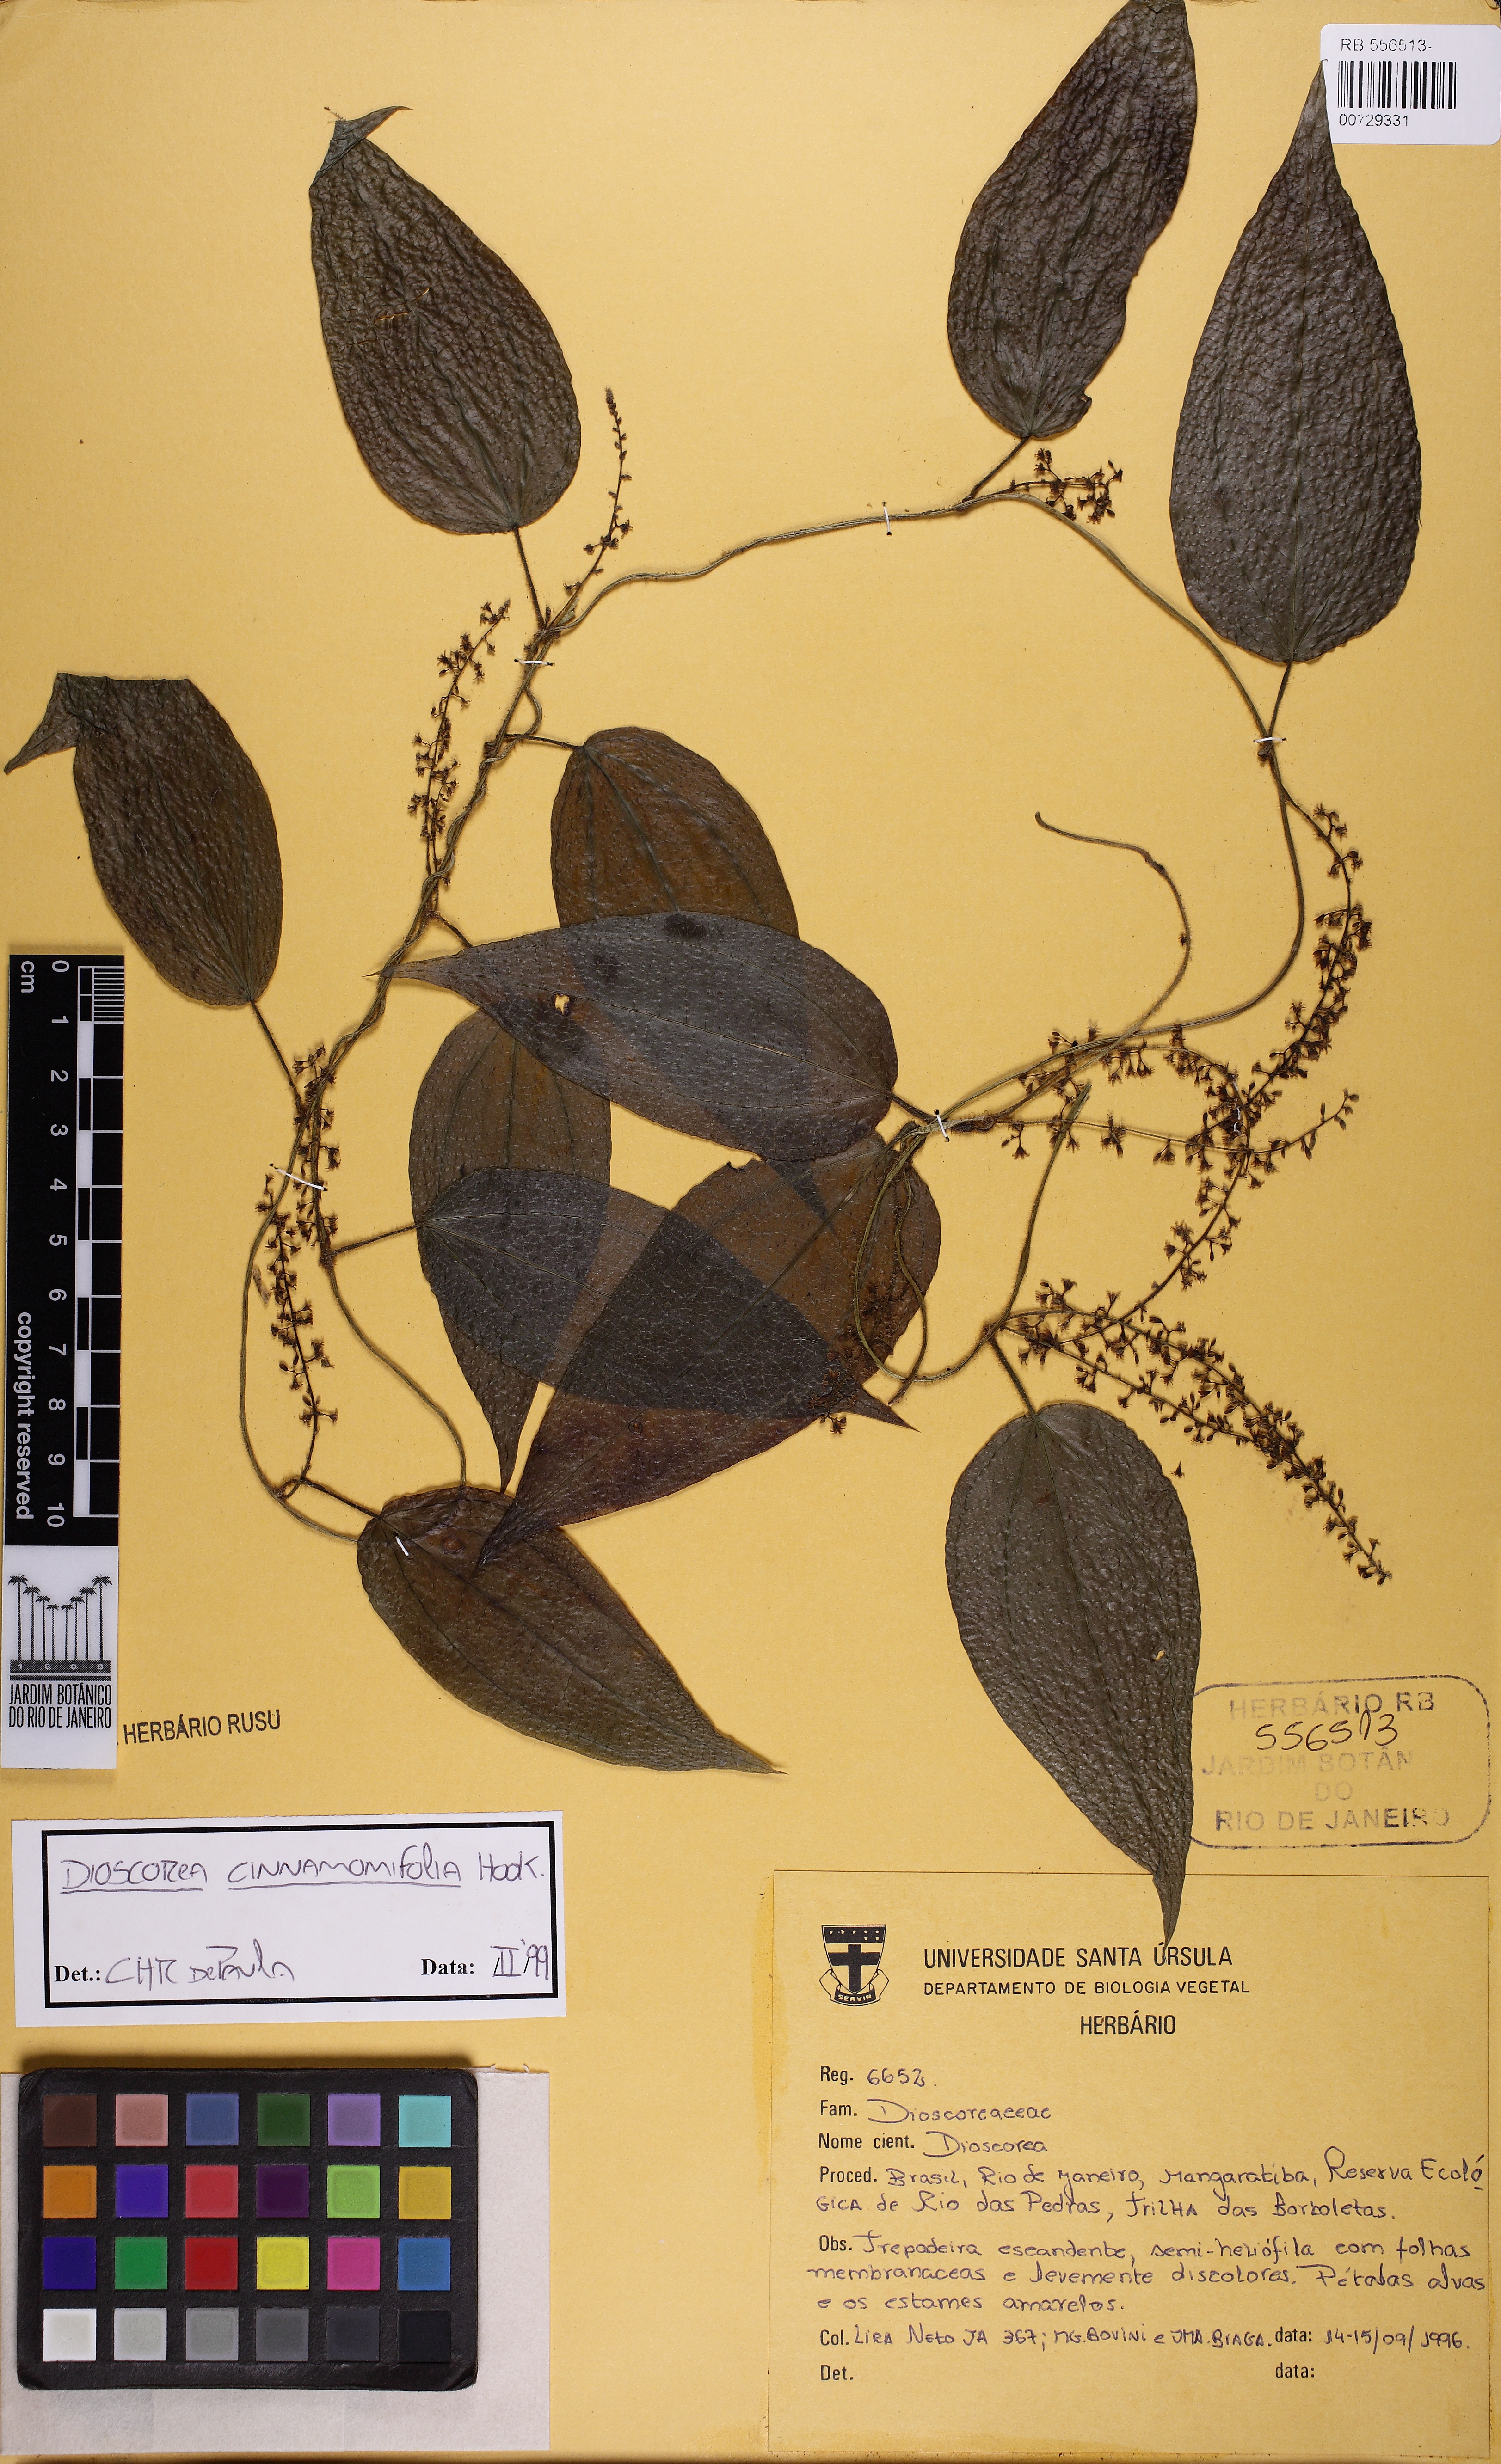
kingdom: Plantae
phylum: Tracheophyta
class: Liliopsida
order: Dioscoreales
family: Dioscoreaceae
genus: Dioscorea
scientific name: Dioscorea cinnamomifolia
